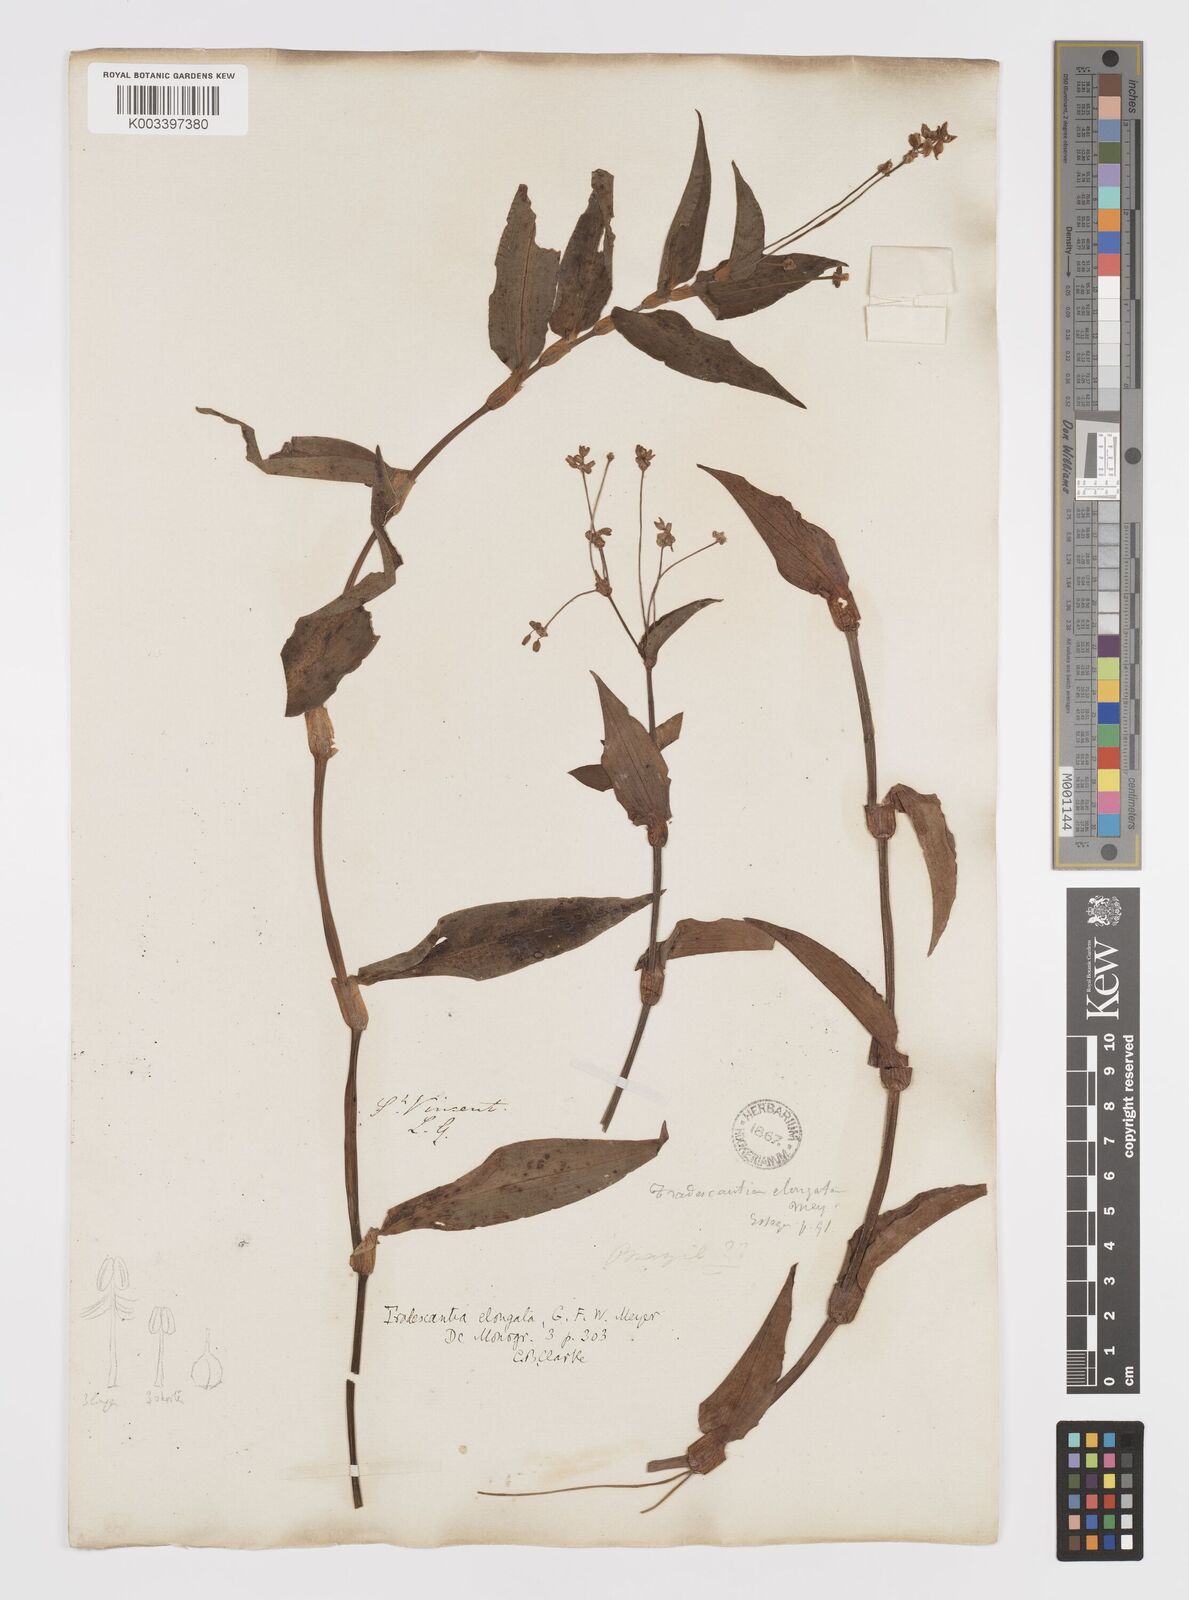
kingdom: Plantae
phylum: Tracheophyta
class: Liliopsida
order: Commelinales
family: Commelinaceae
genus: Callisia
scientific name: Callisia
